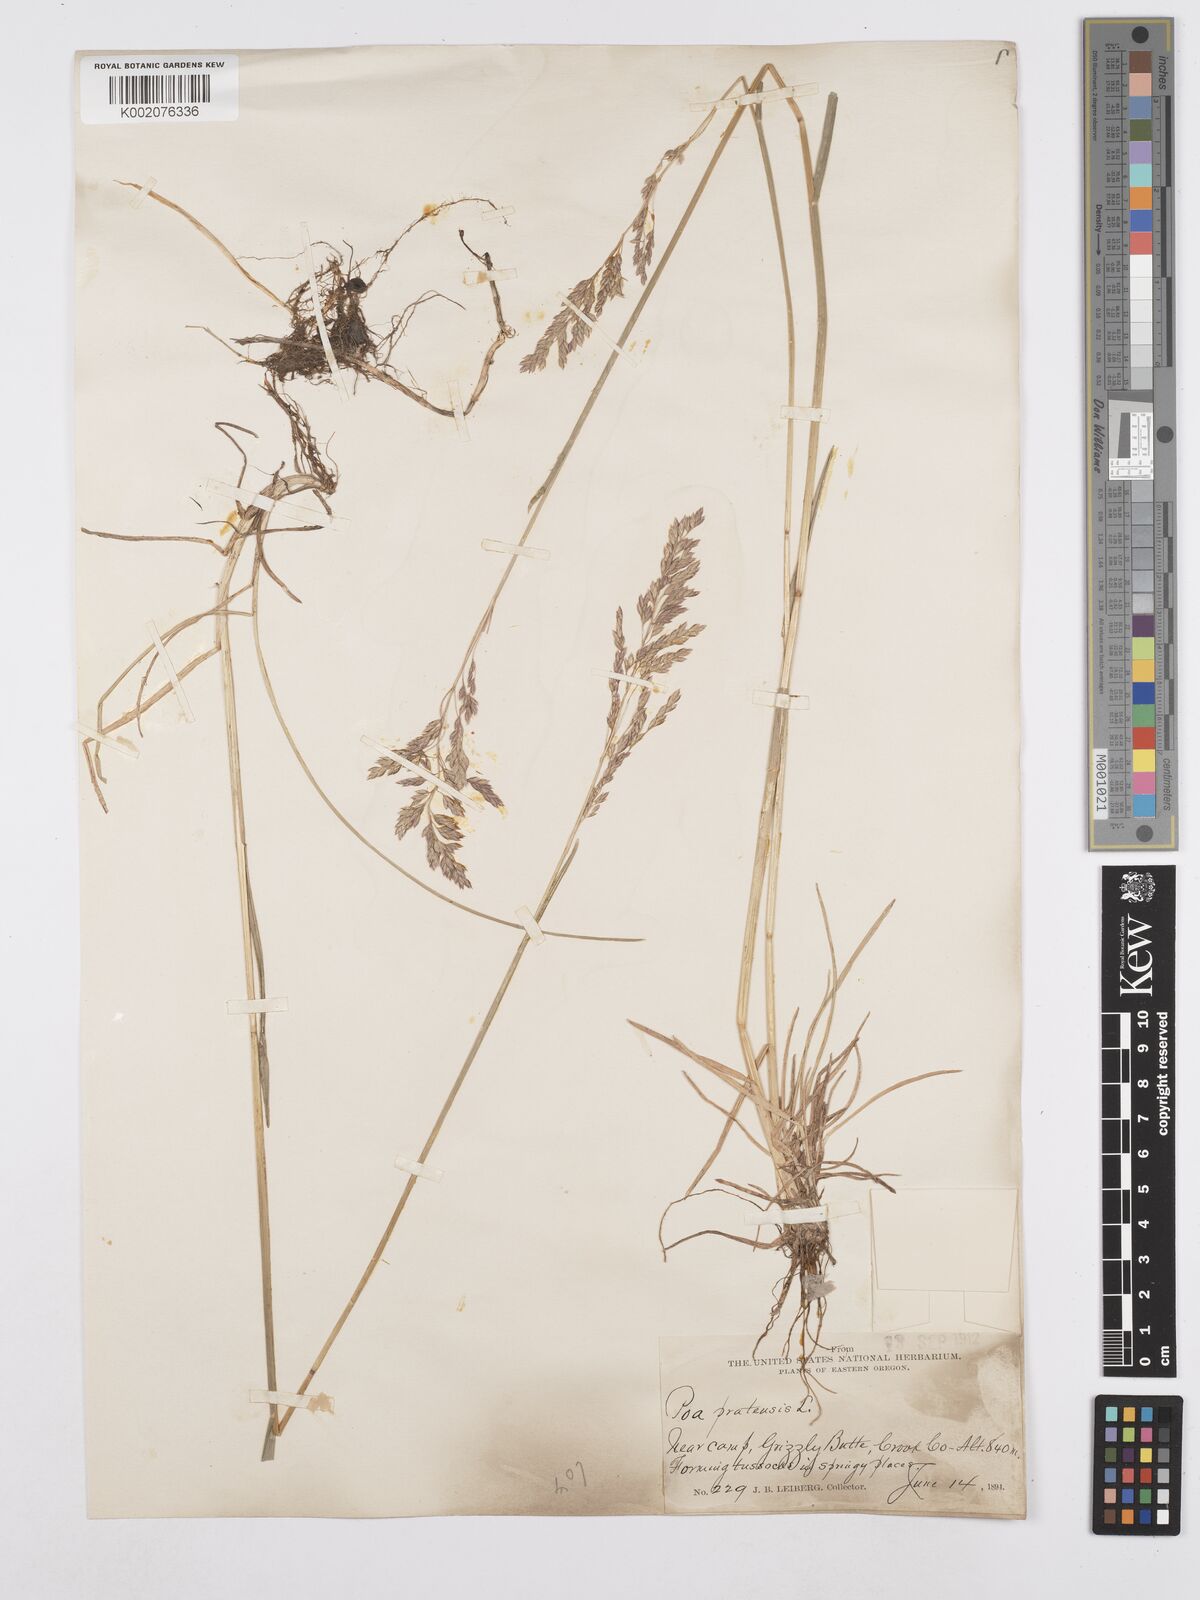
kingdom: Plantae
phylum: Tracheophyta
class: Liliopsida
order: Poales
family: Poaceae
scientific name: Poaceae
